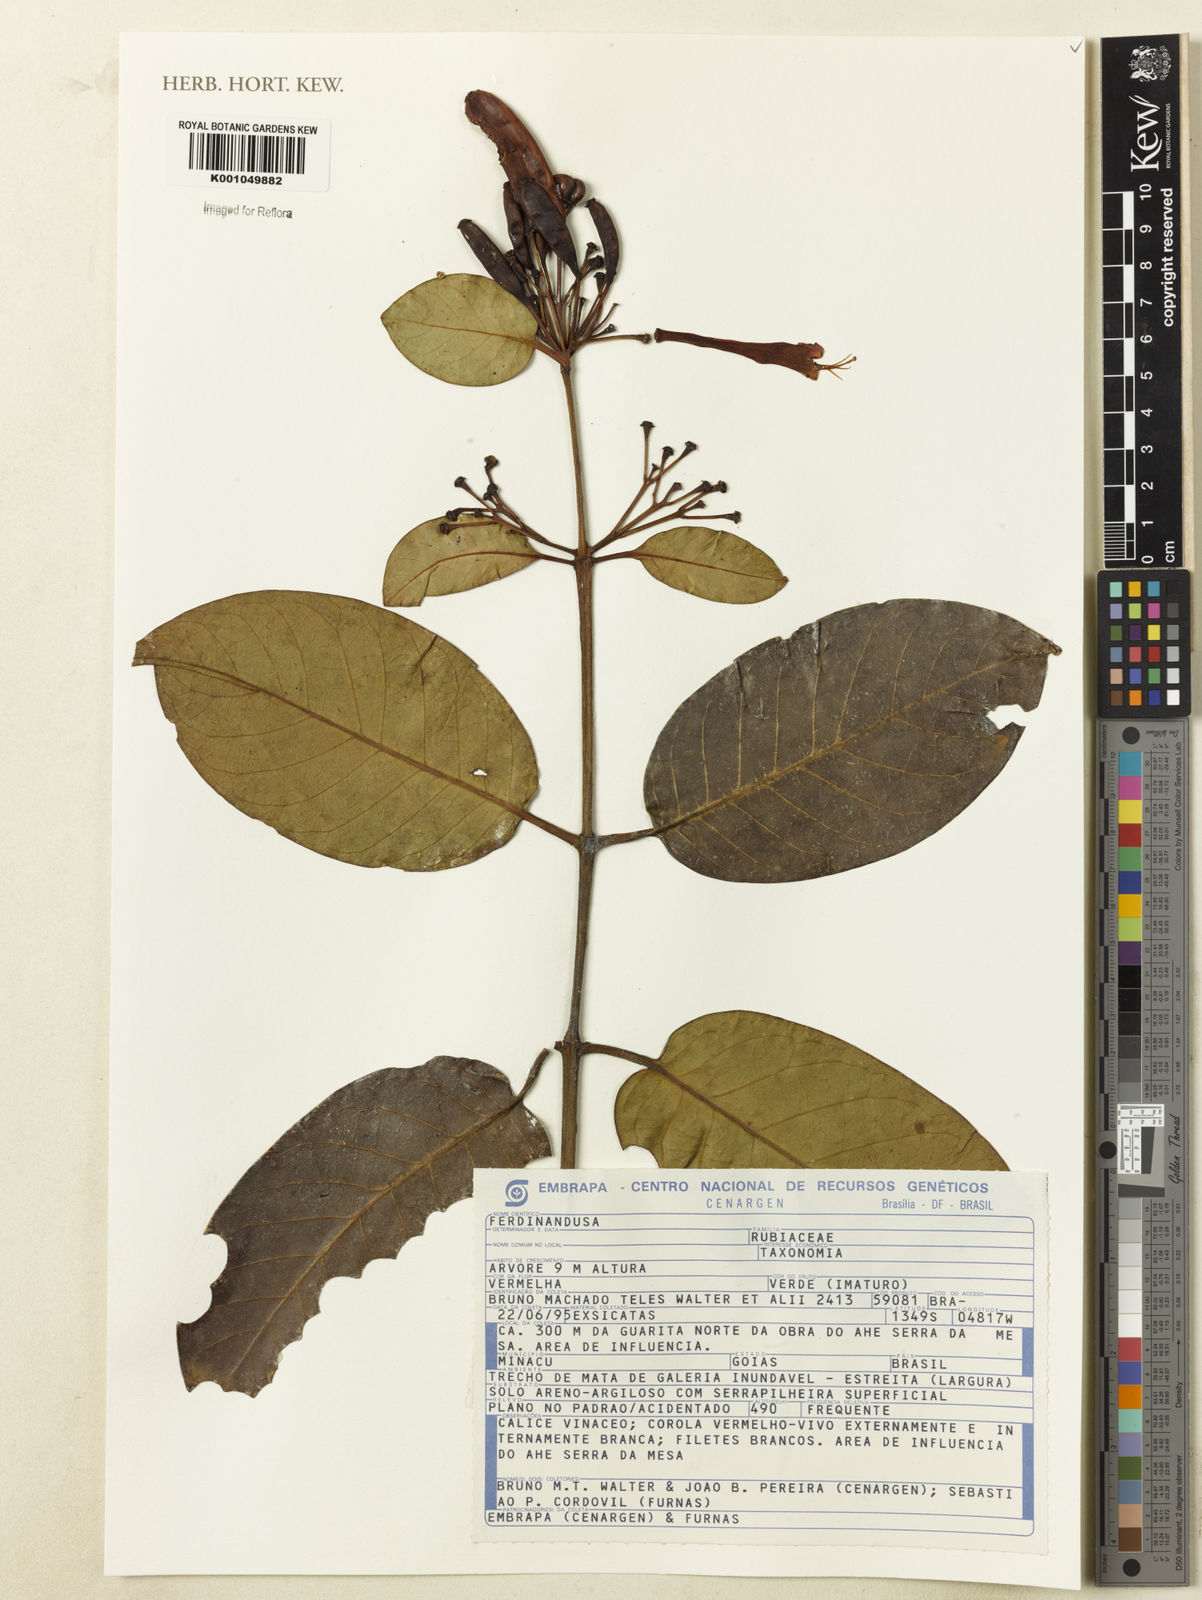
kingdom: Plantae
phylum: Tracheophyta
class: Magnoliopsida
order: Gentianales
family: Rubiaceae
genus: Ferdinandusa
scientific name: Ferdinandusa
